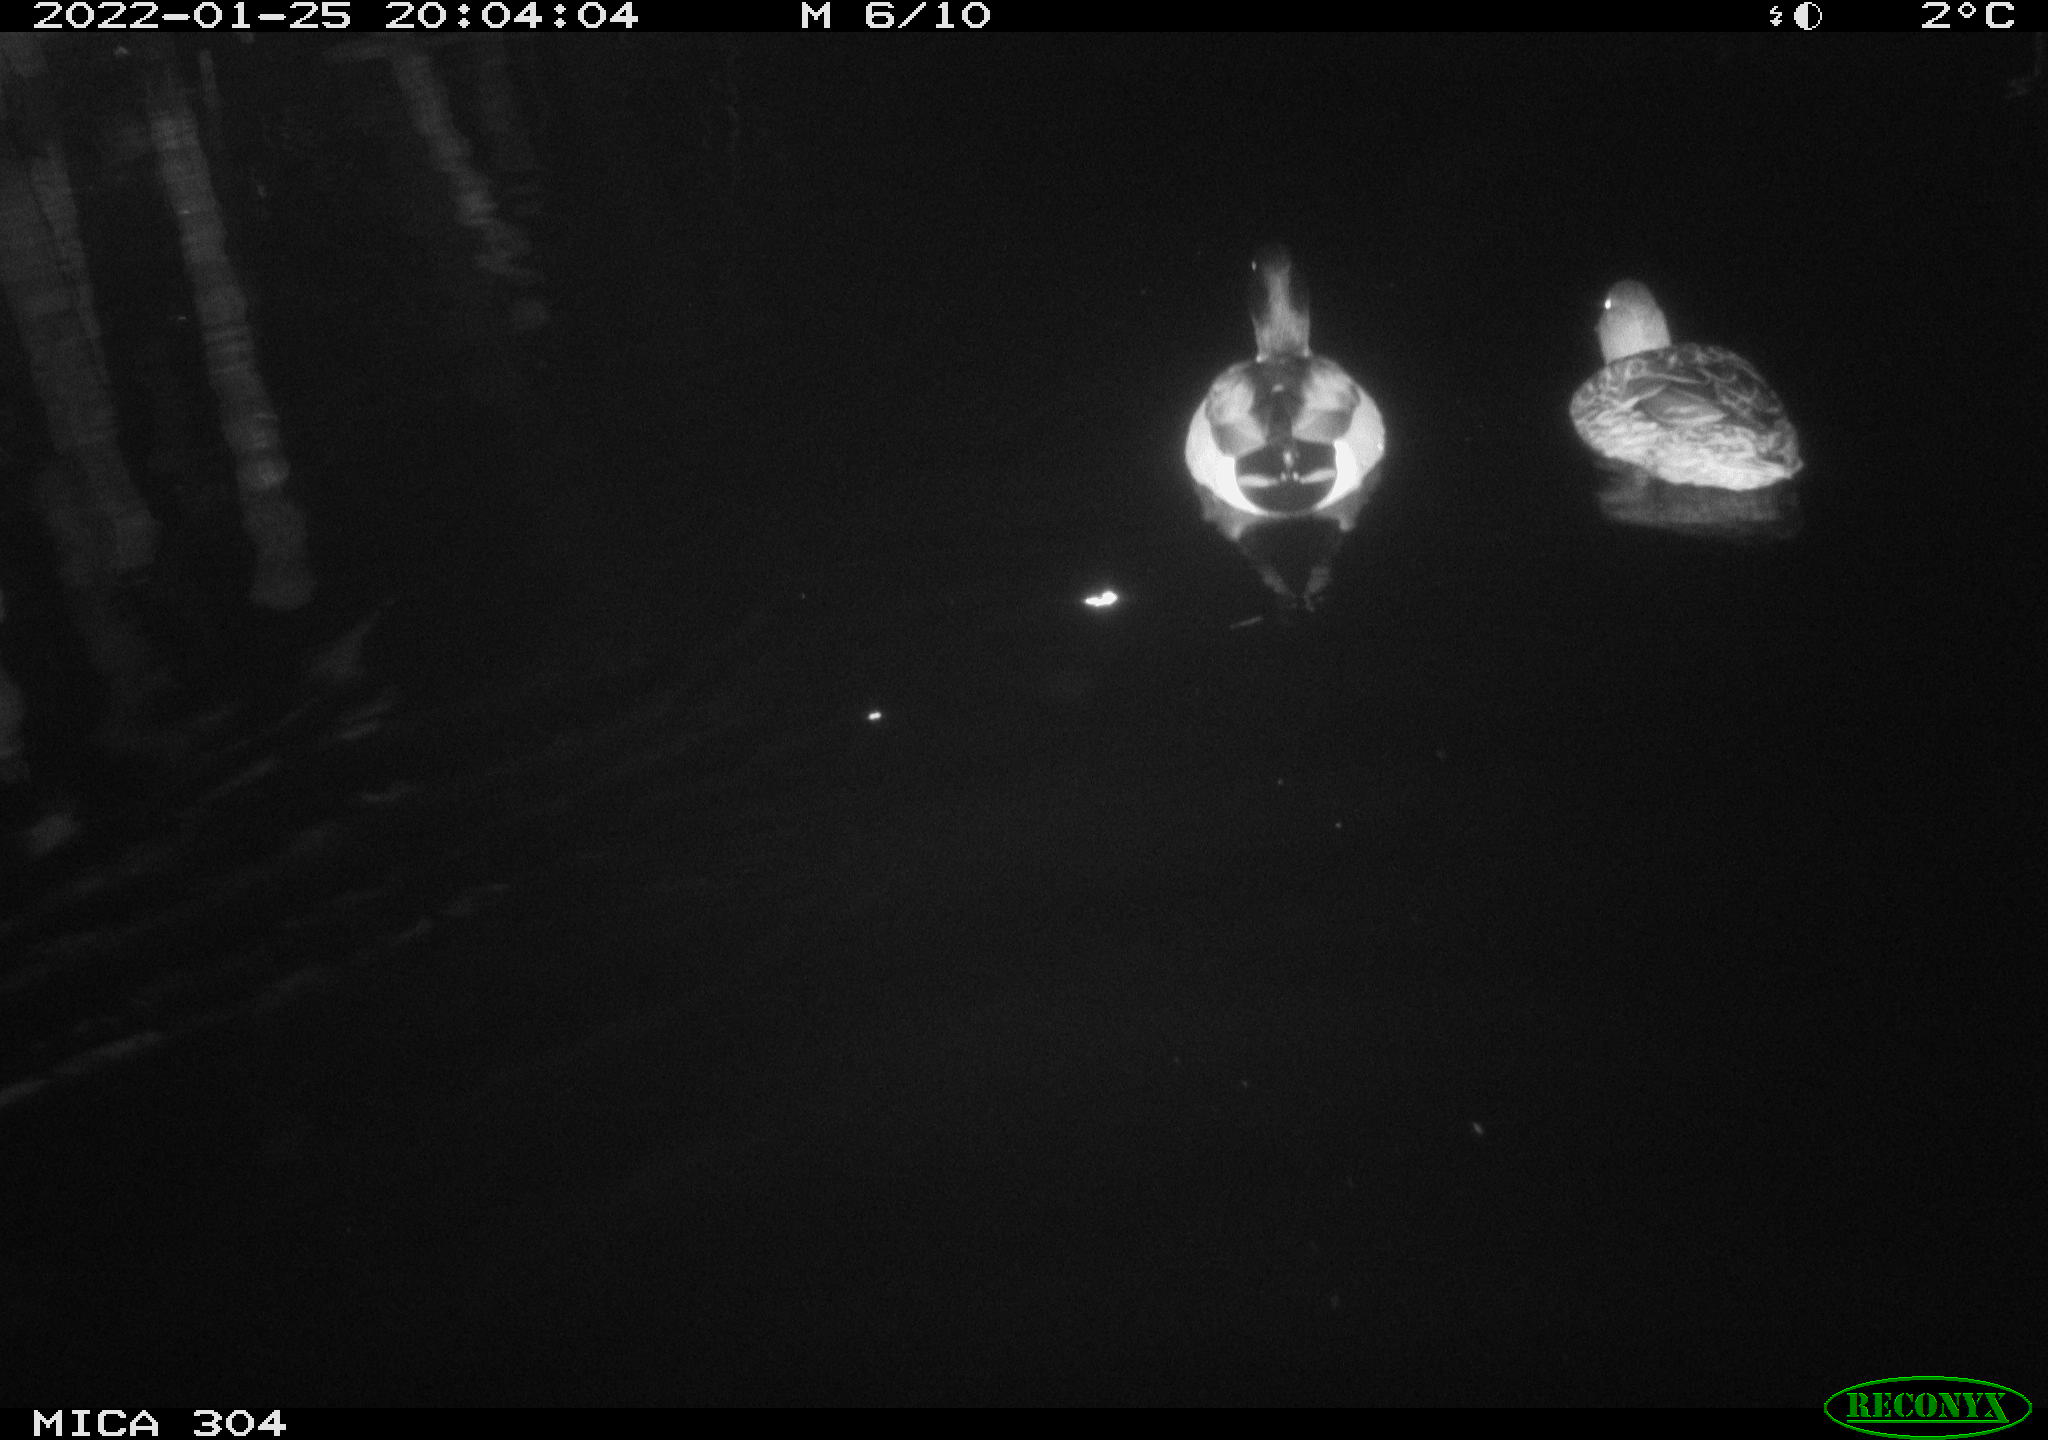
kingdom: Animalia
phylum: Chordata
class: Aves
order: Anseriformes
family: Anatidae
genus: Anas
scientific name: Anas
